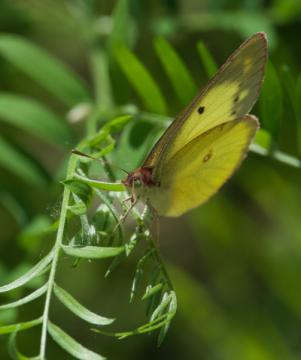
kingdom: Animalia
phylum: Arthropoda
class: Insecta
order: Lepidoptera
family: Pieridae
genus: Colias
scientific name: Colias philodice
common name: Clouded Sulphur
